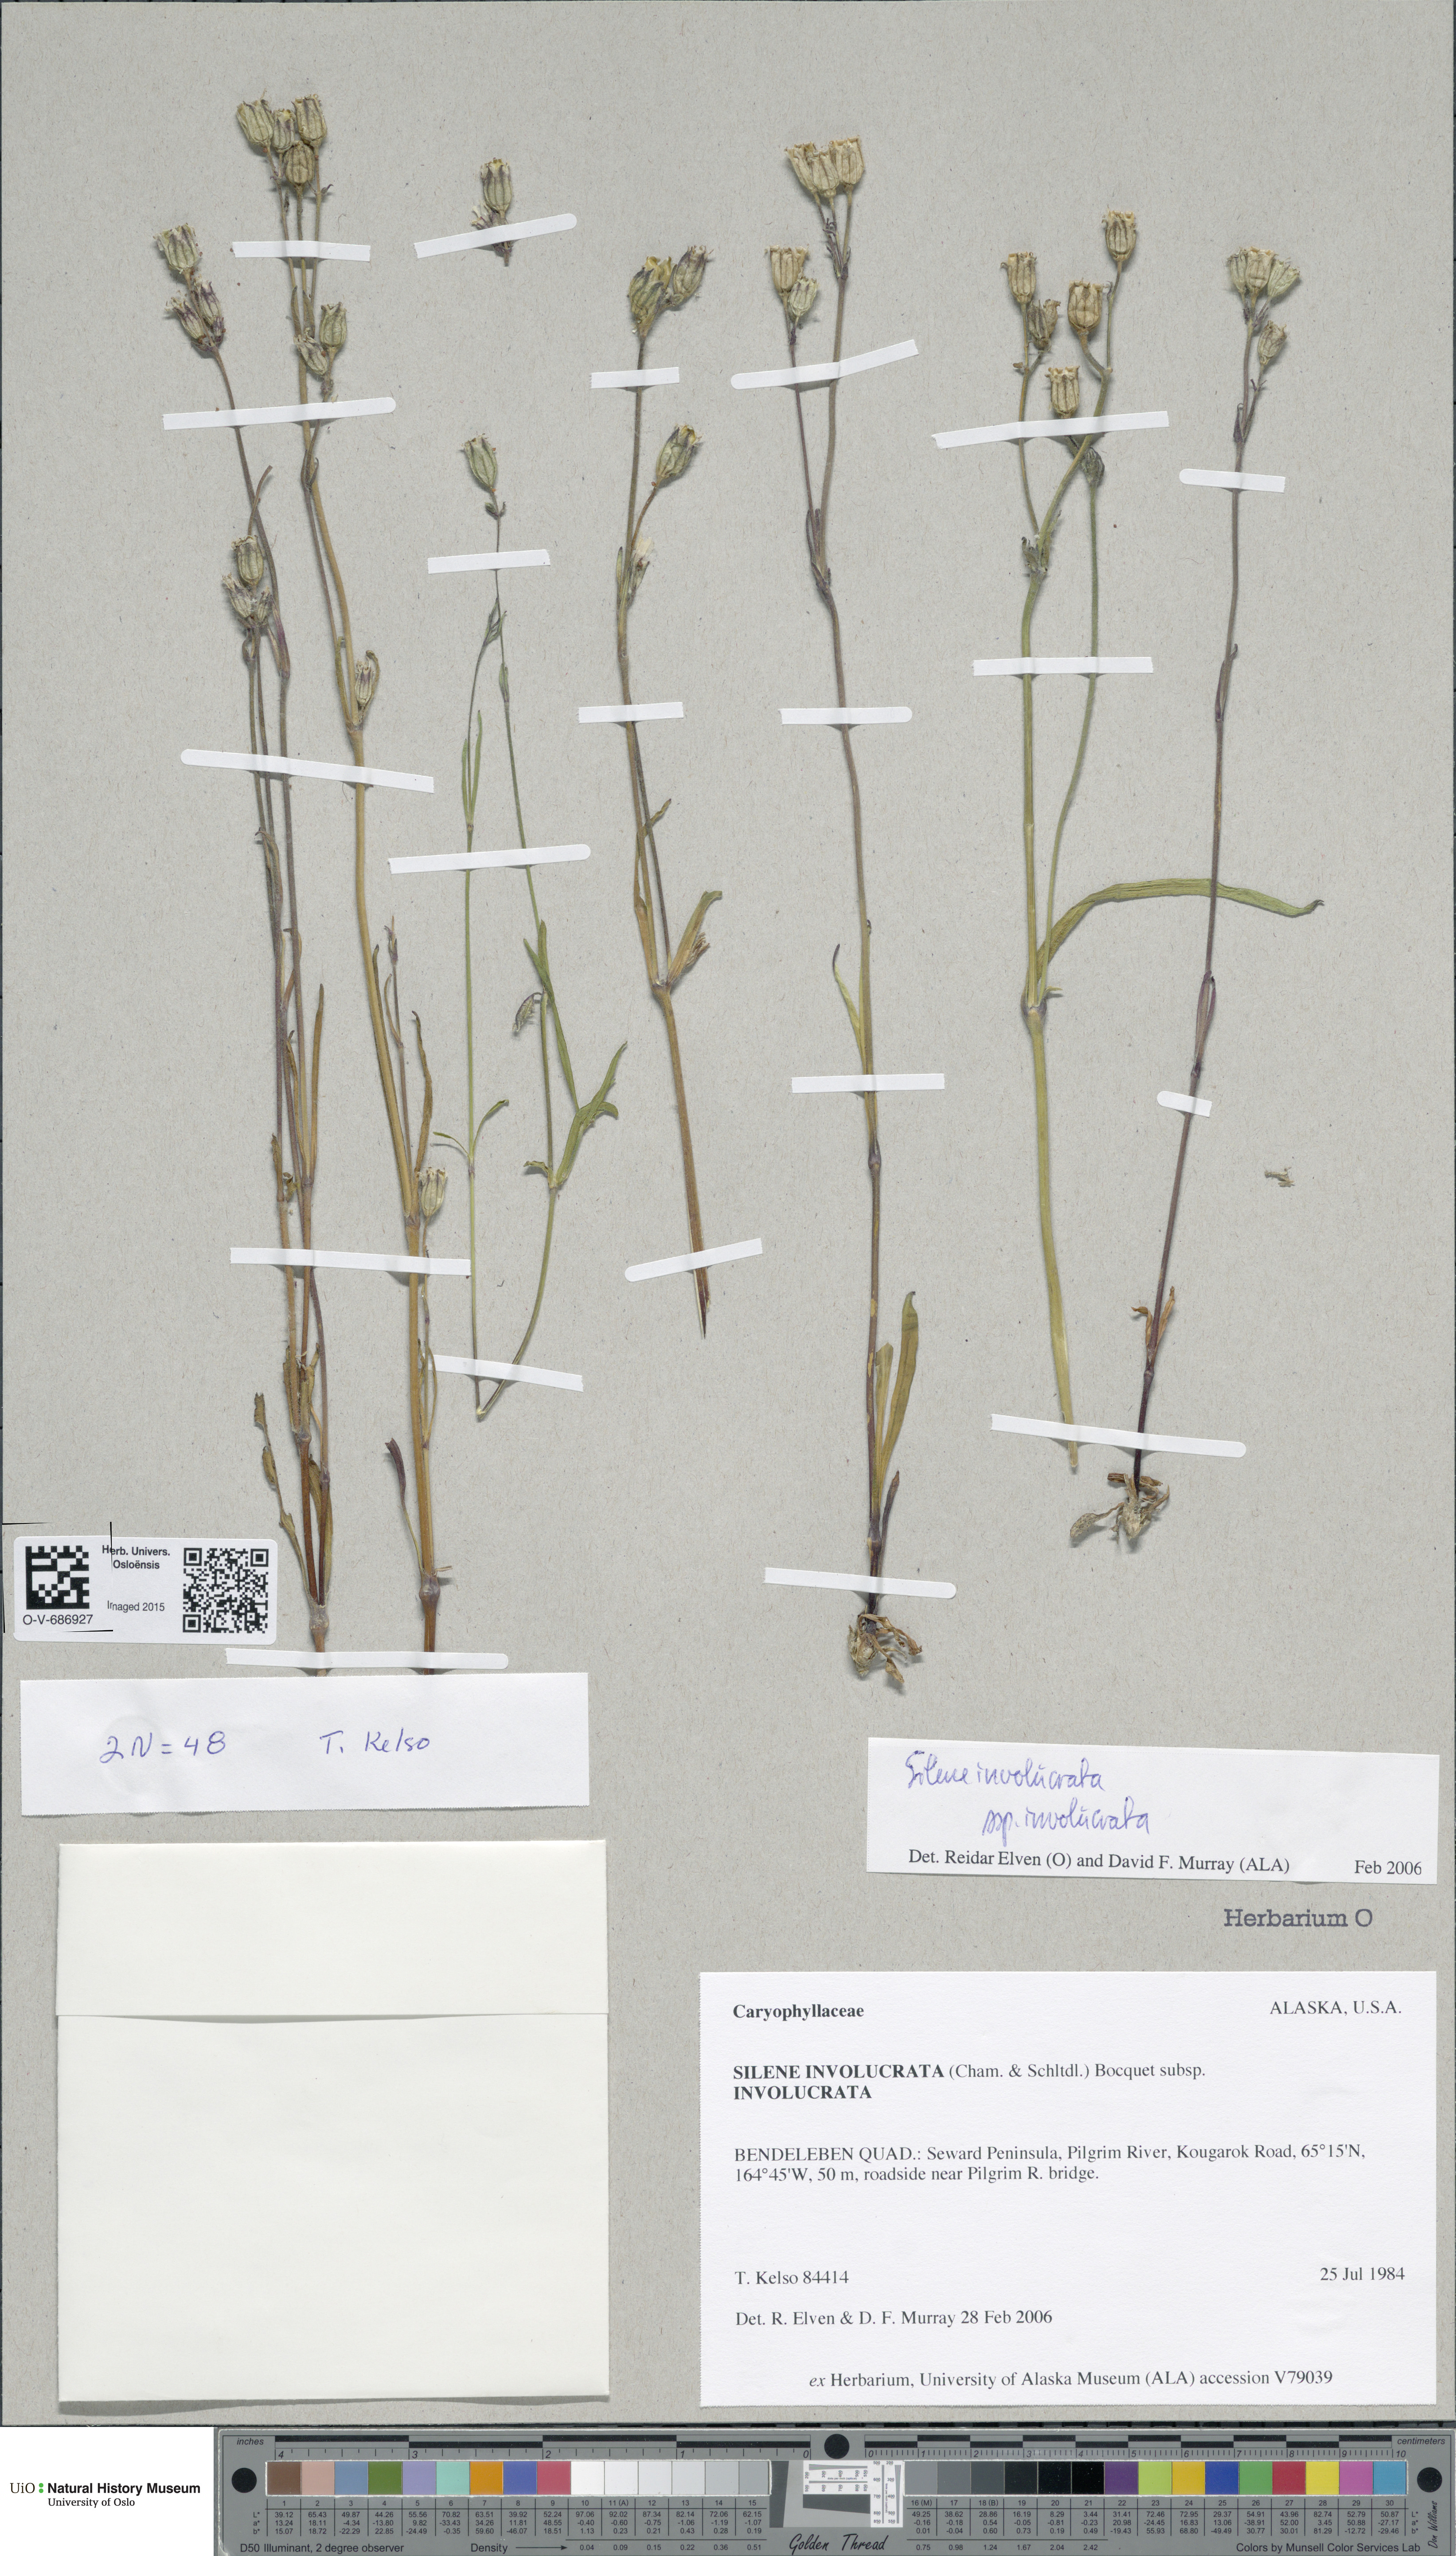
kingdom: Plantae
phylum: Tracheophyta
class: Magnoliopsida
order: Caryophyllales
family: Caryophyllaceae
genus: Silene
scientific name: Silene involucrata
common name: Greater arctic campion
